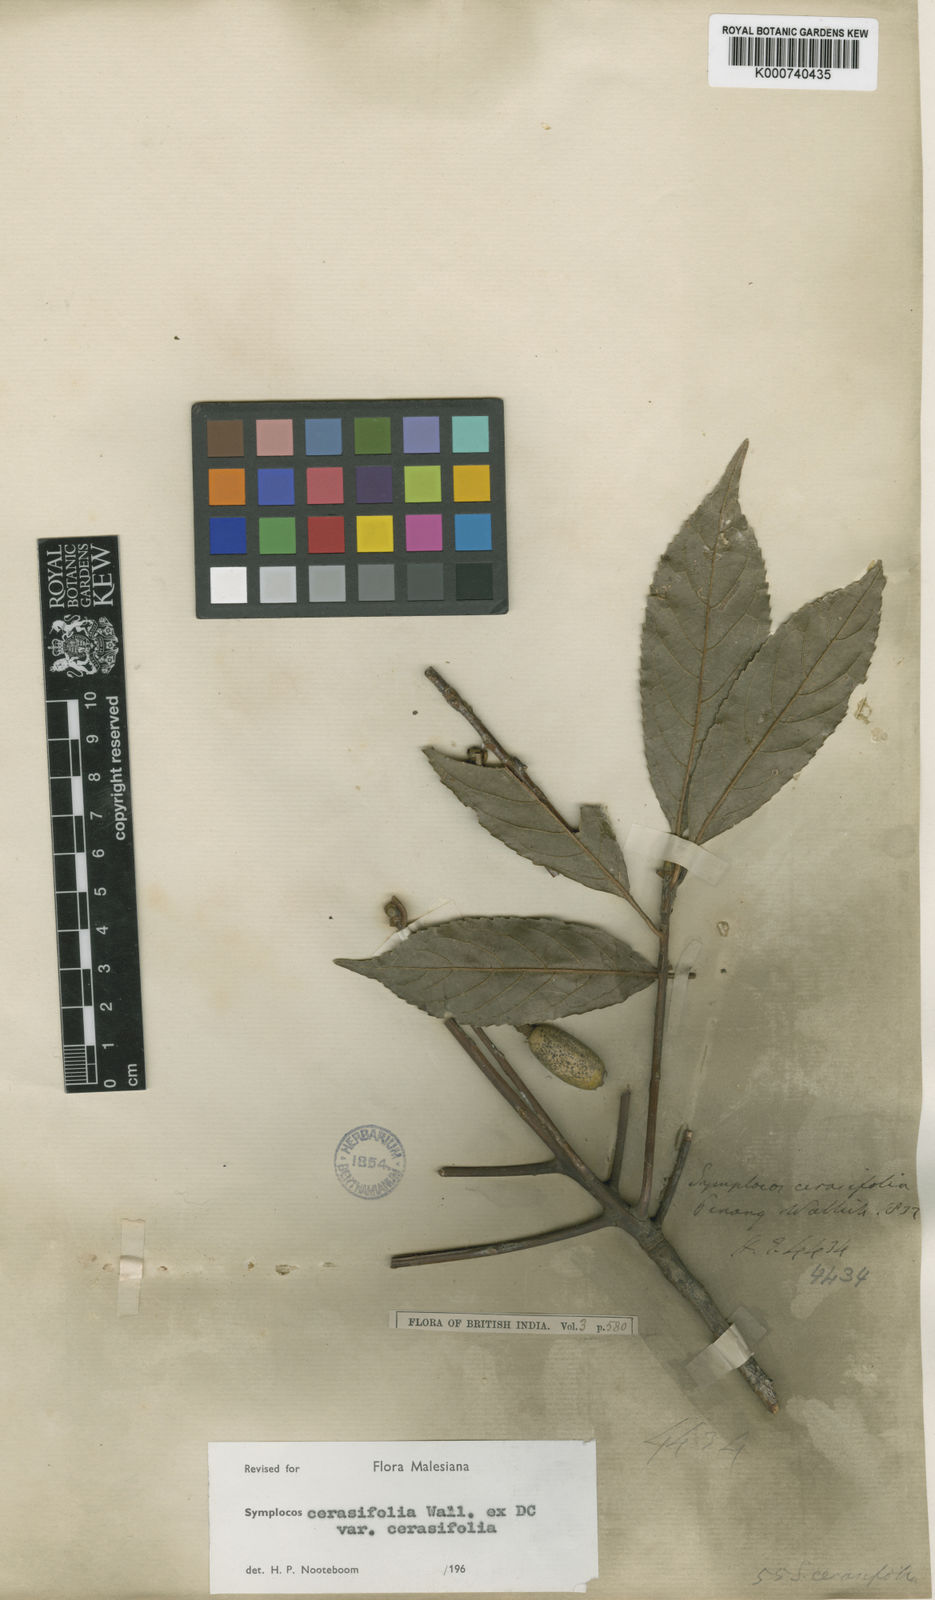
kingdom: Plantae
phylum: Tracheophyta
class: Magnoliopsida
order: Ericales
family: Symplocaceae
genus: Symplocos
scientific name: Symplocos
